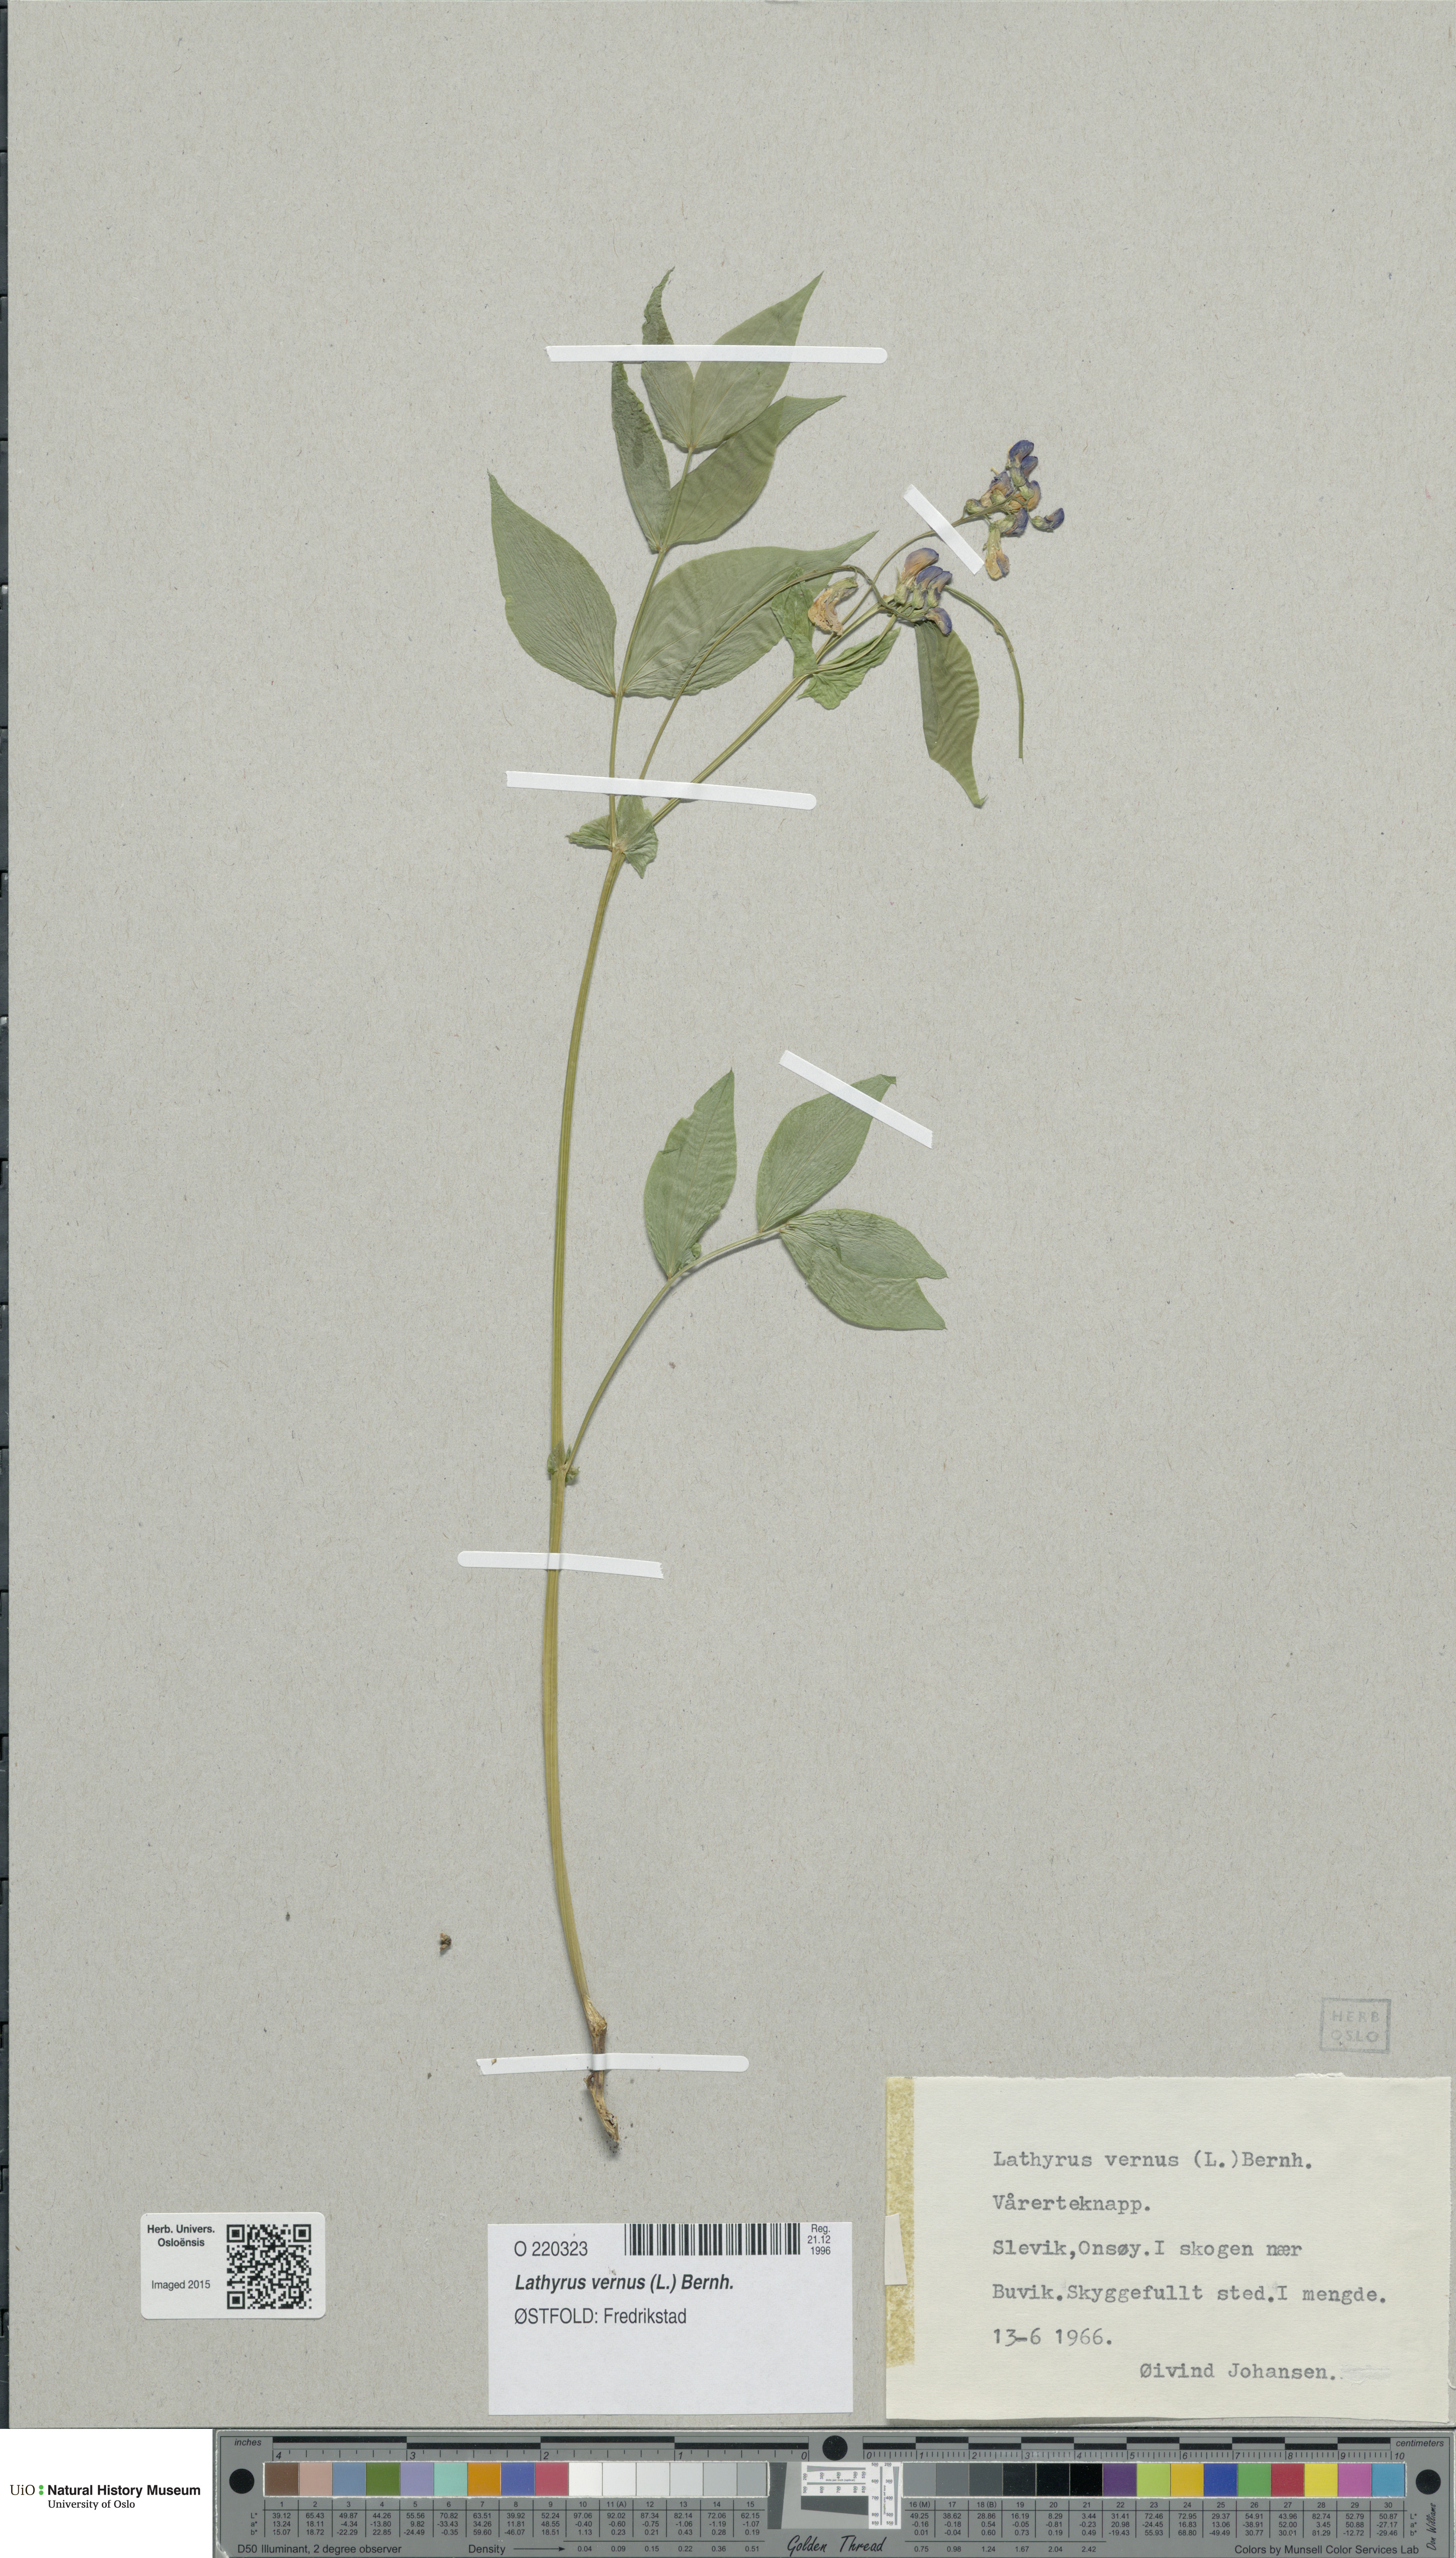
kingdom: Plantae
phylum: Tracheophyta
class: Magnoliopsida
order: Fabales
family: Fabaceae
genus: Lathyrus
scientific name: Lathyrus vernus
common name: Spring pea
